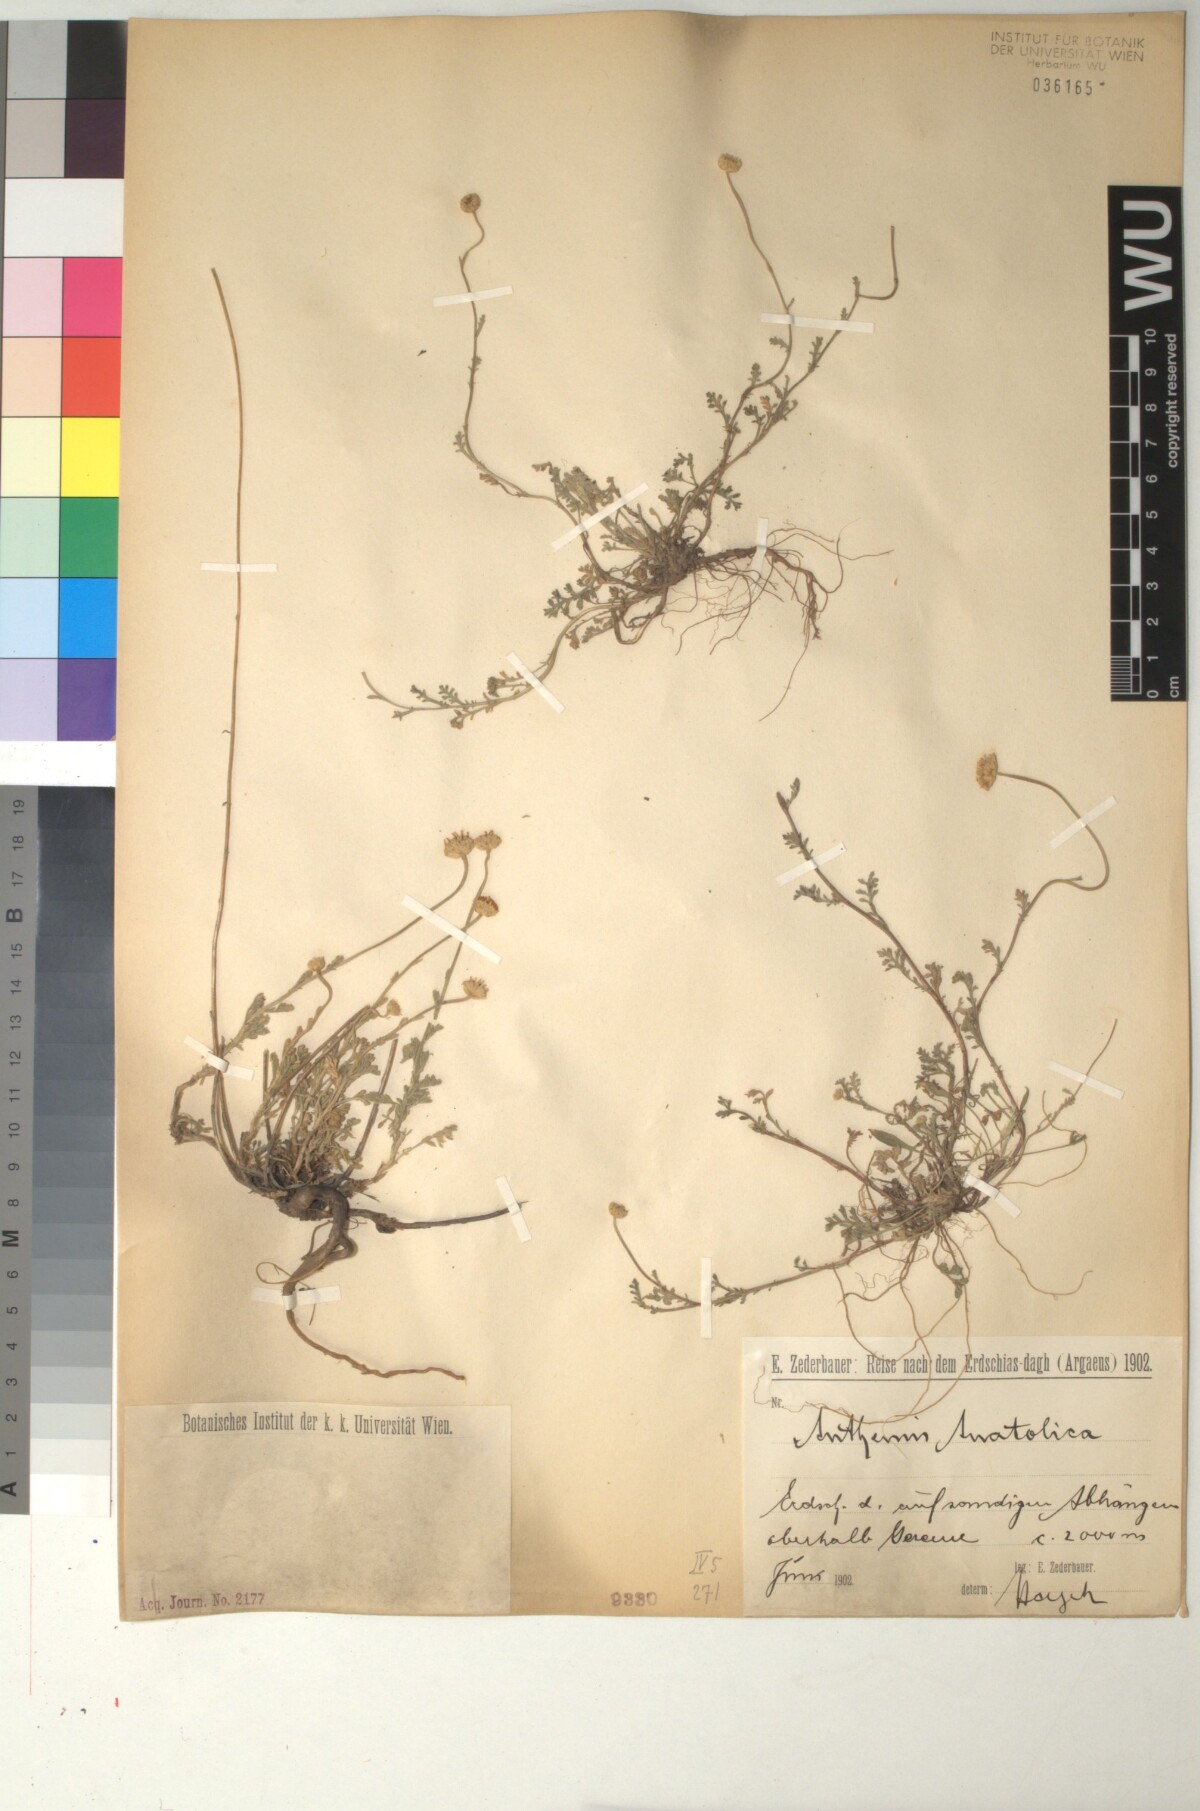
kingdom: Plantae
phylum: Tracheophyta
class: Magnoliopsida
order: Asterales
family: Asteraceae
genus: Anthemis
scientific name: Anthemis cretica
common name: Mountain dog-daisy
